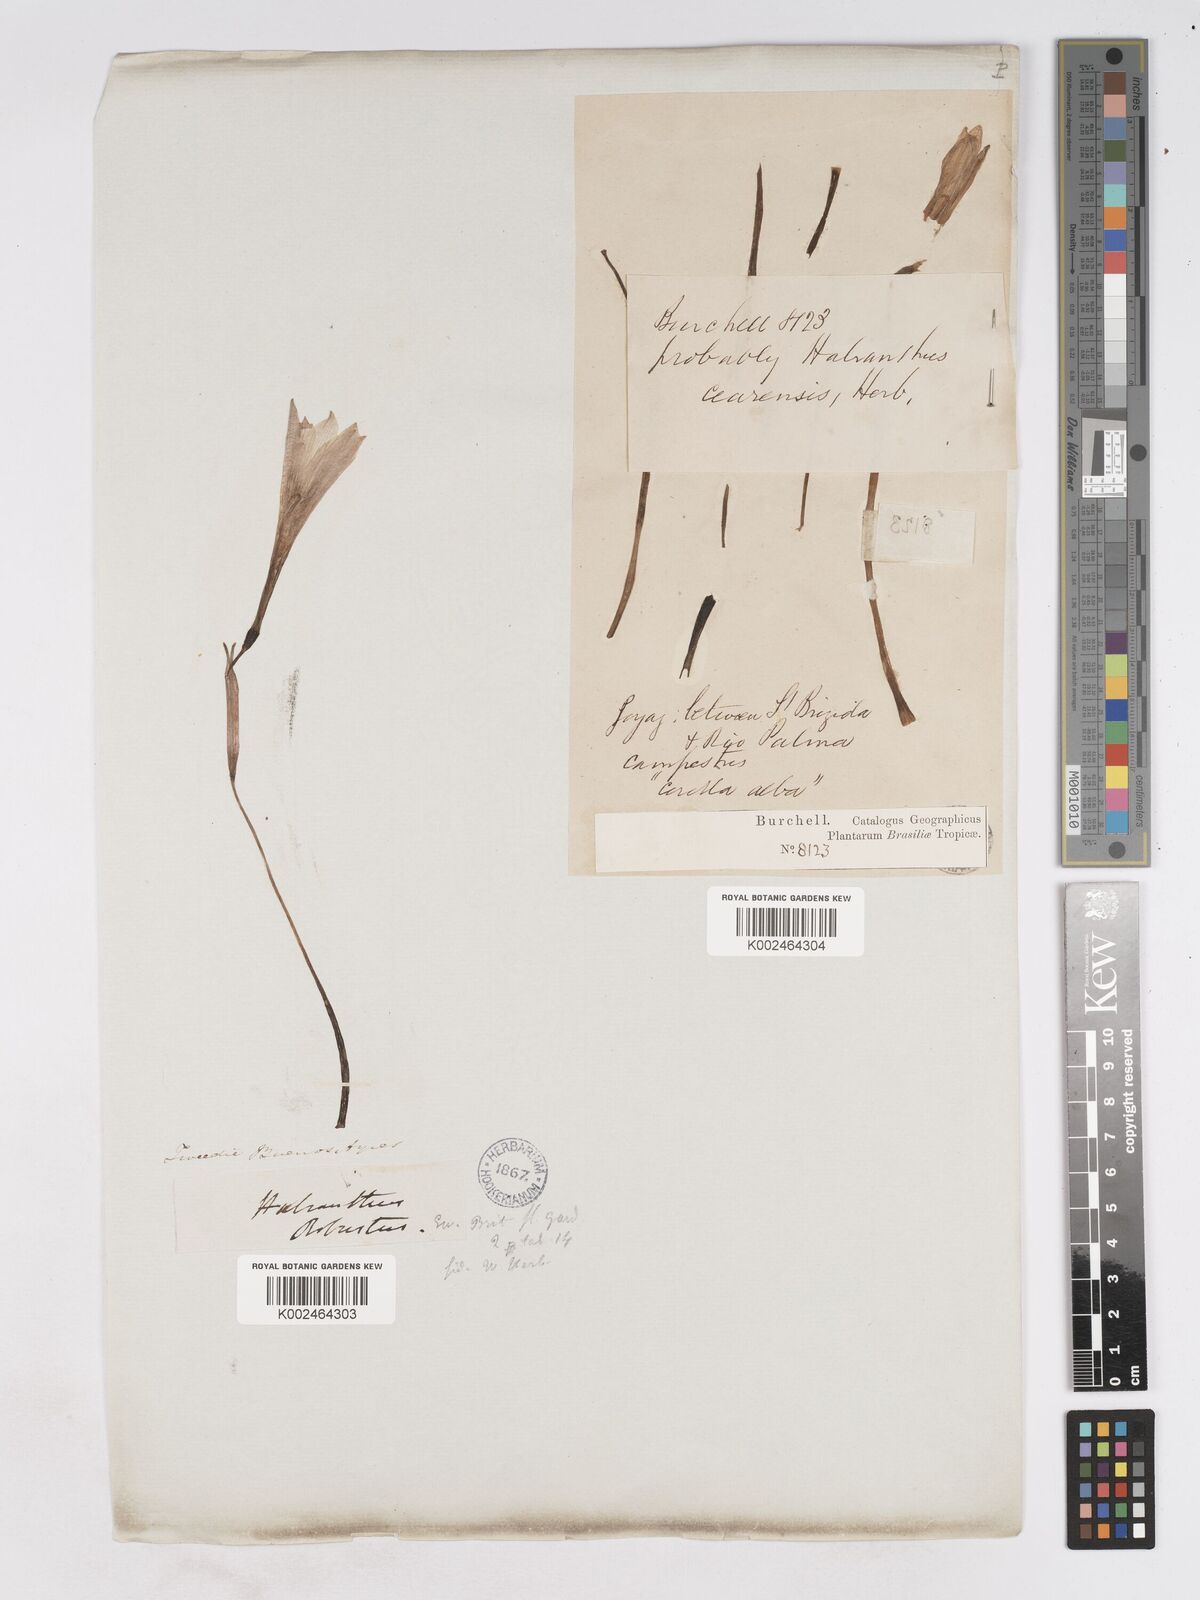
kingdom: Plantae
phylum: Tracheophyta
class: Liliopsida
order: Asparagales
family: Amaryllidaceae
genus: Zephyranthes
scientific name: Zephyranthes robusta
